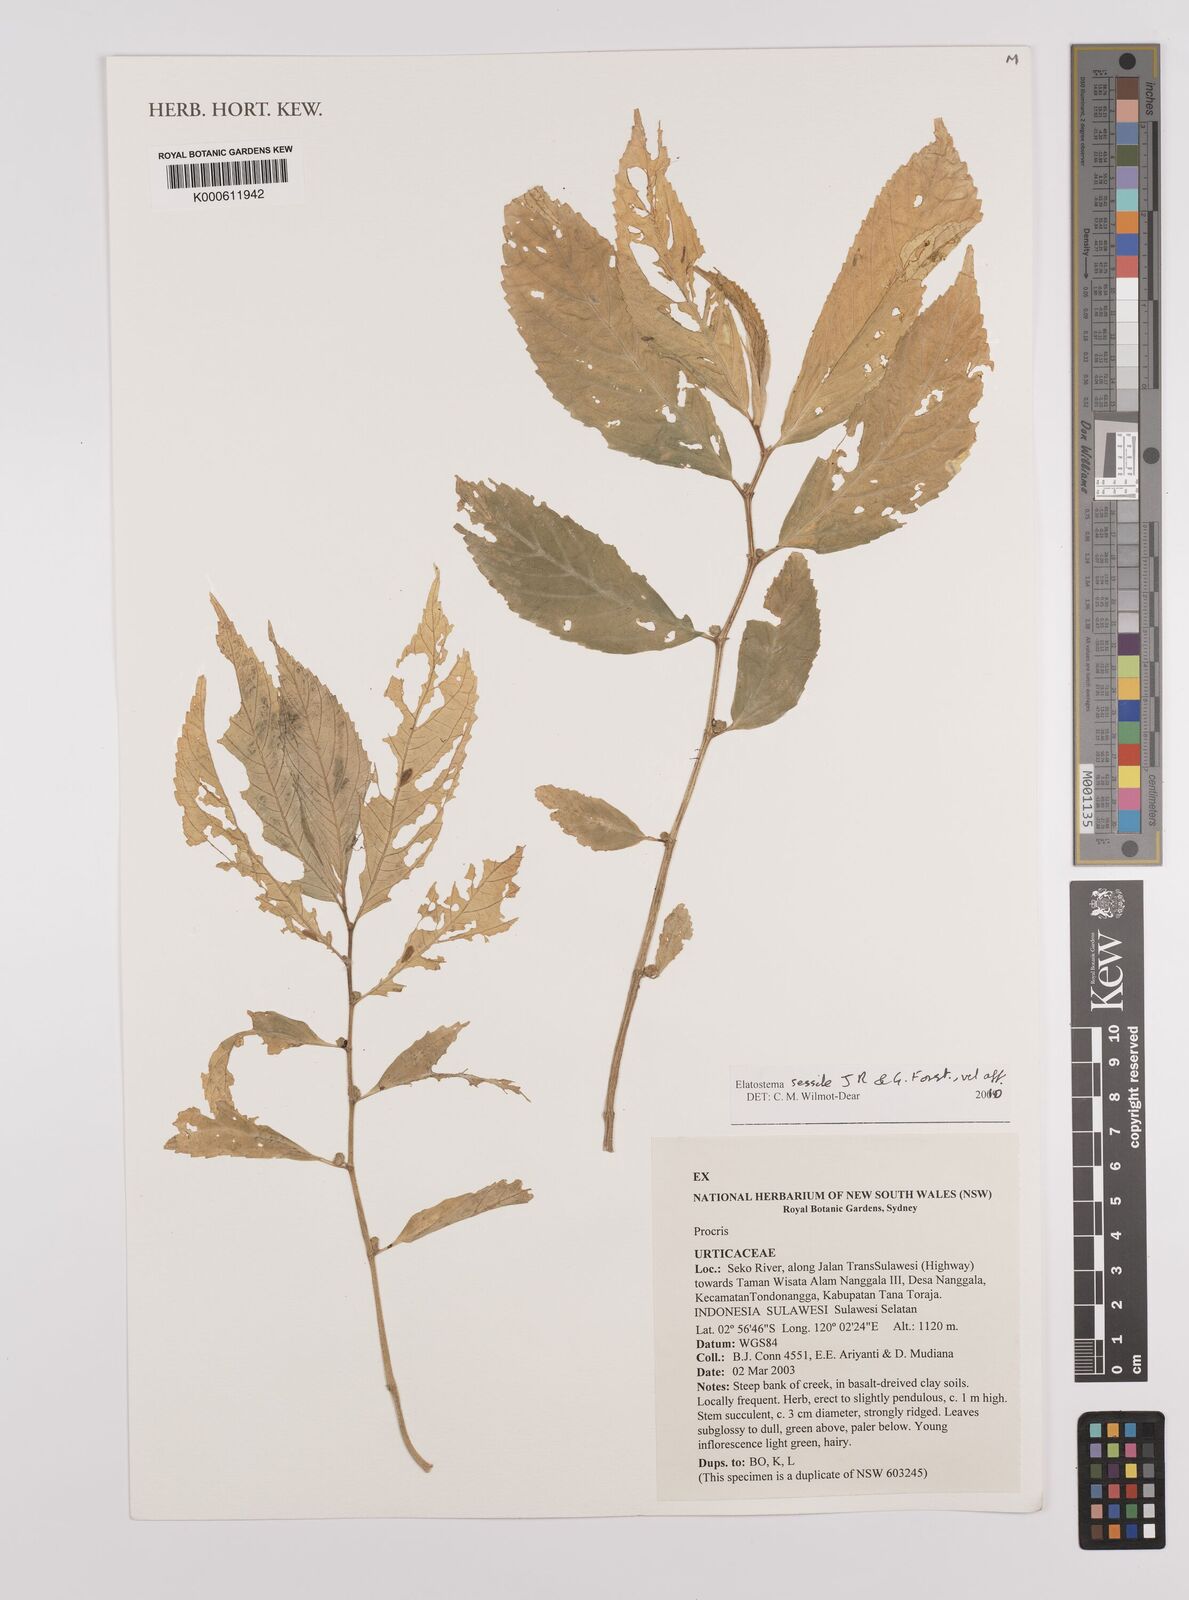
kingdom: Plantae
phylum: Tracheophyta
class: Magnoliopsida
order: Rosales
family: Urticaceae
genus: Elatostema
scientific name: Elatostema sessile
